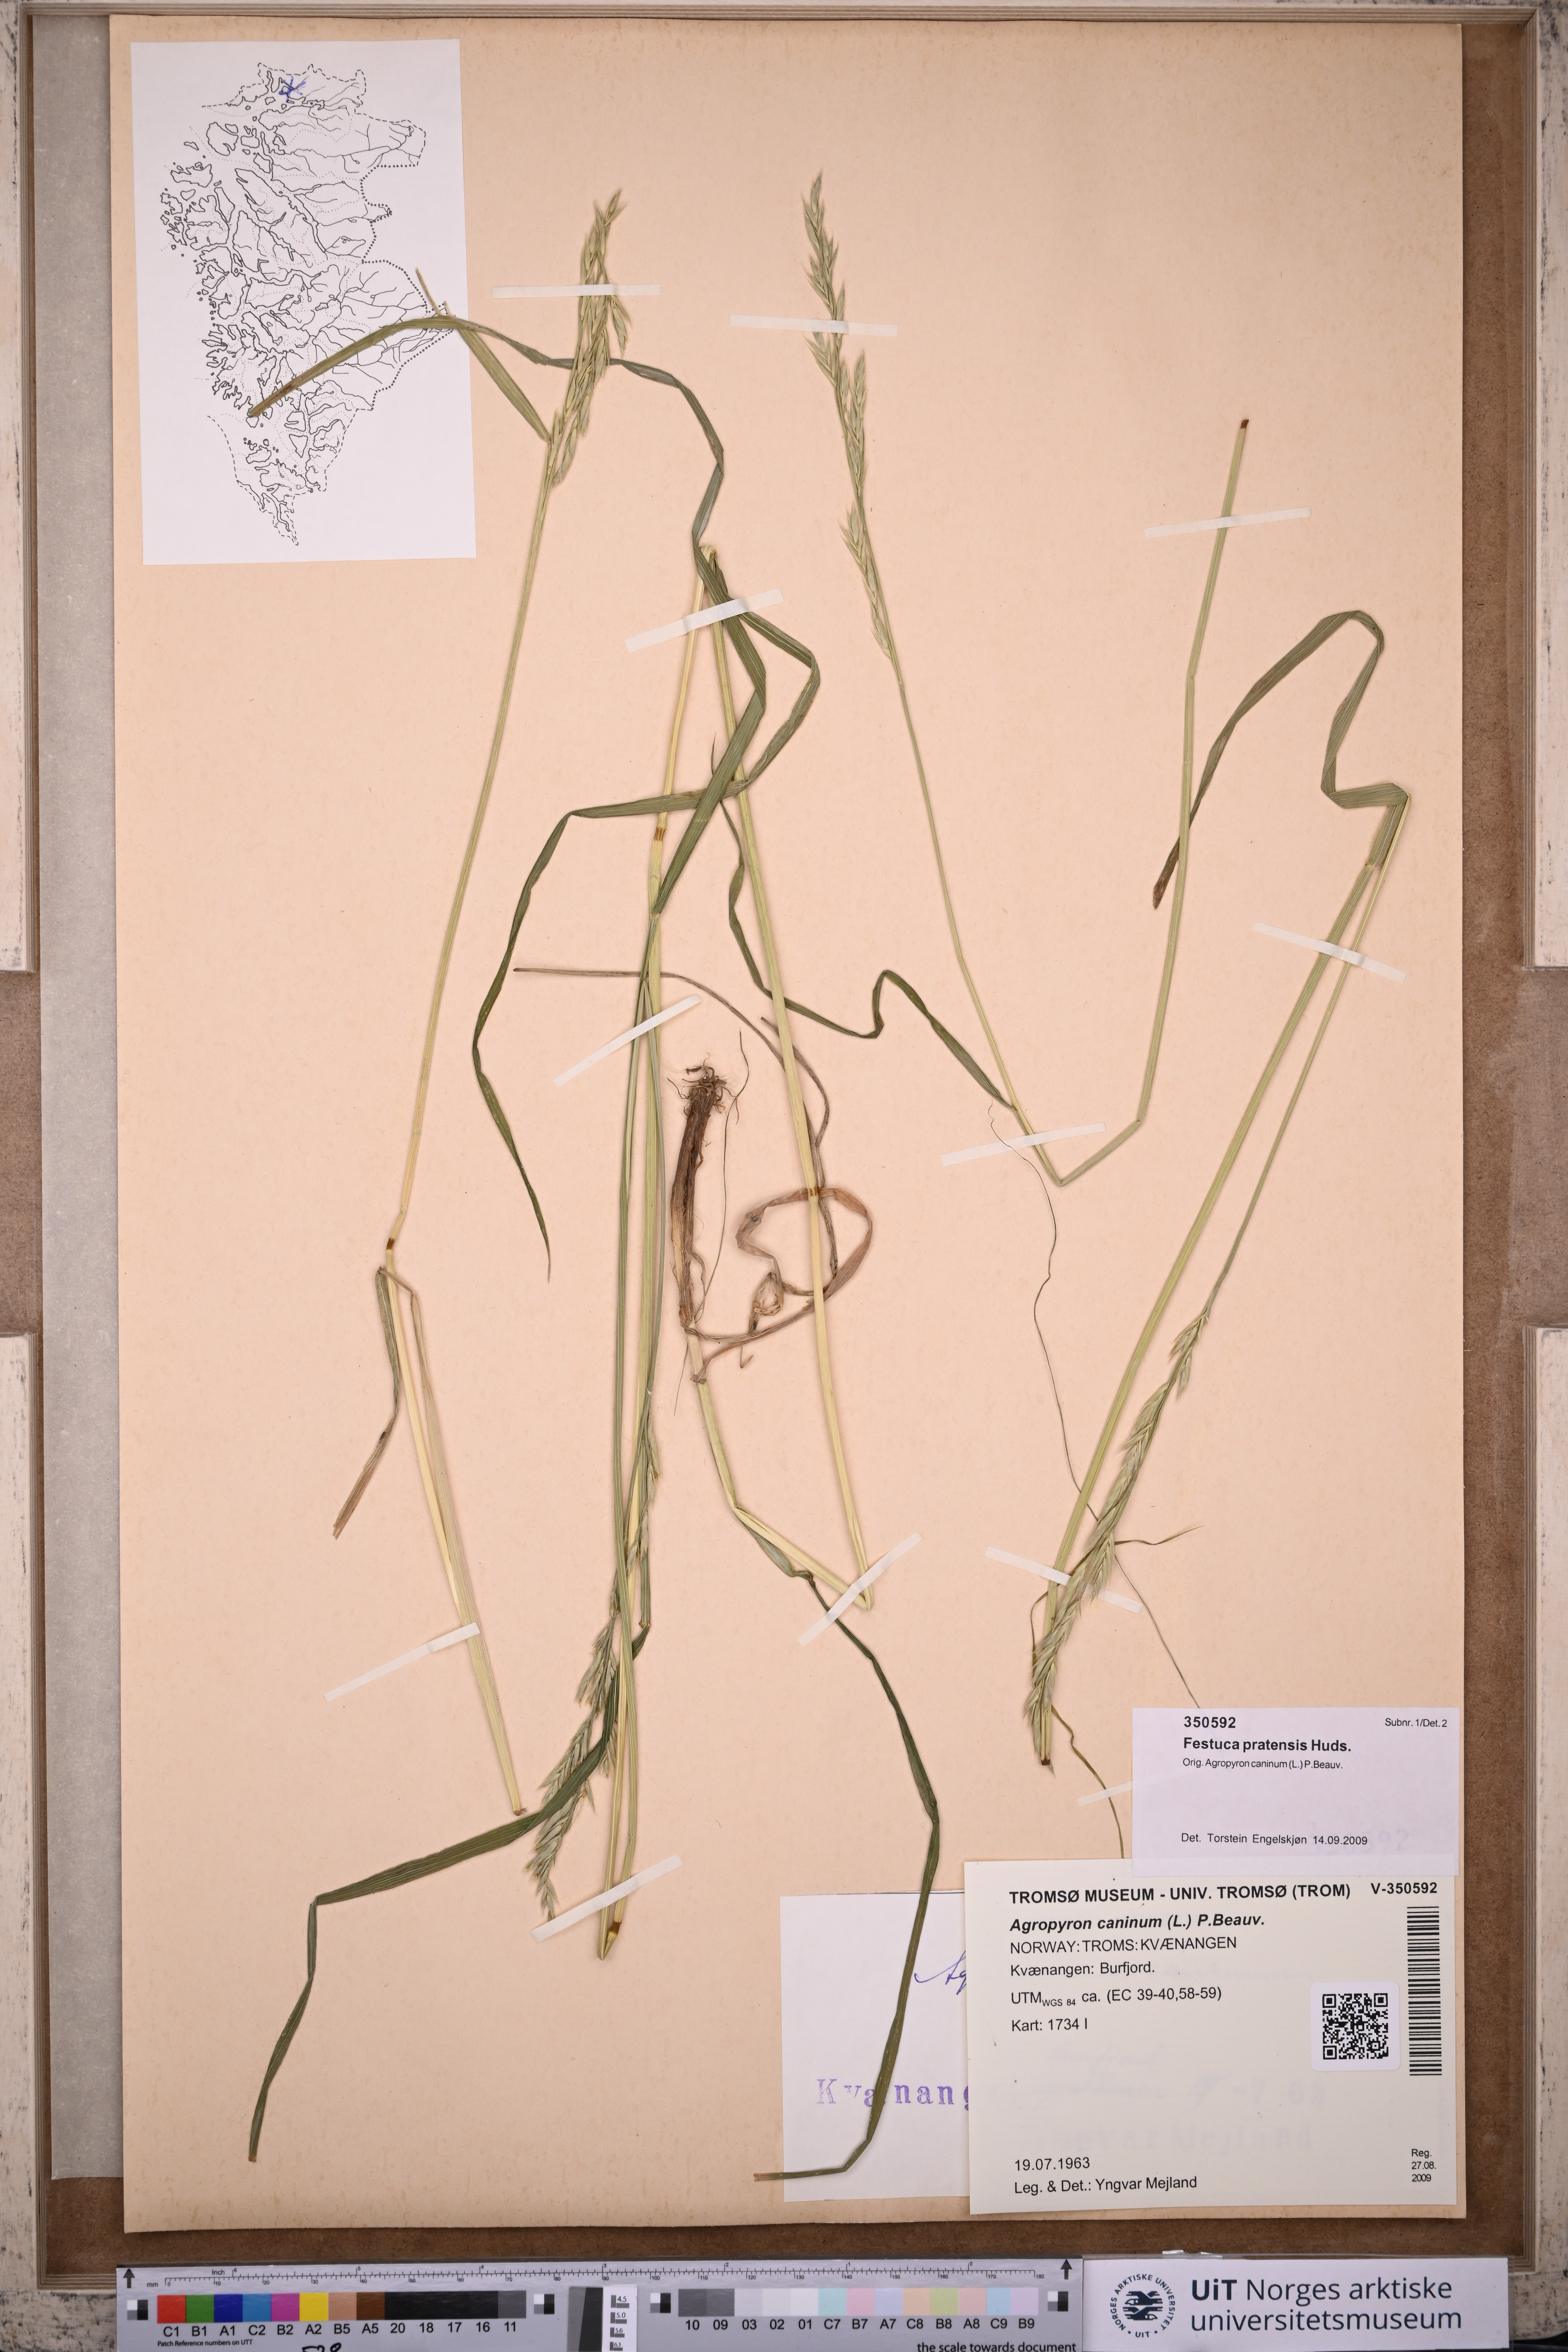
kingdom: Plantae
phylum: Tracheophyta
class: Liliopsida
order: Poales
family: Poaceae
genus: Lolium
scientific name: Lolium pratense
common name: Dover grass
